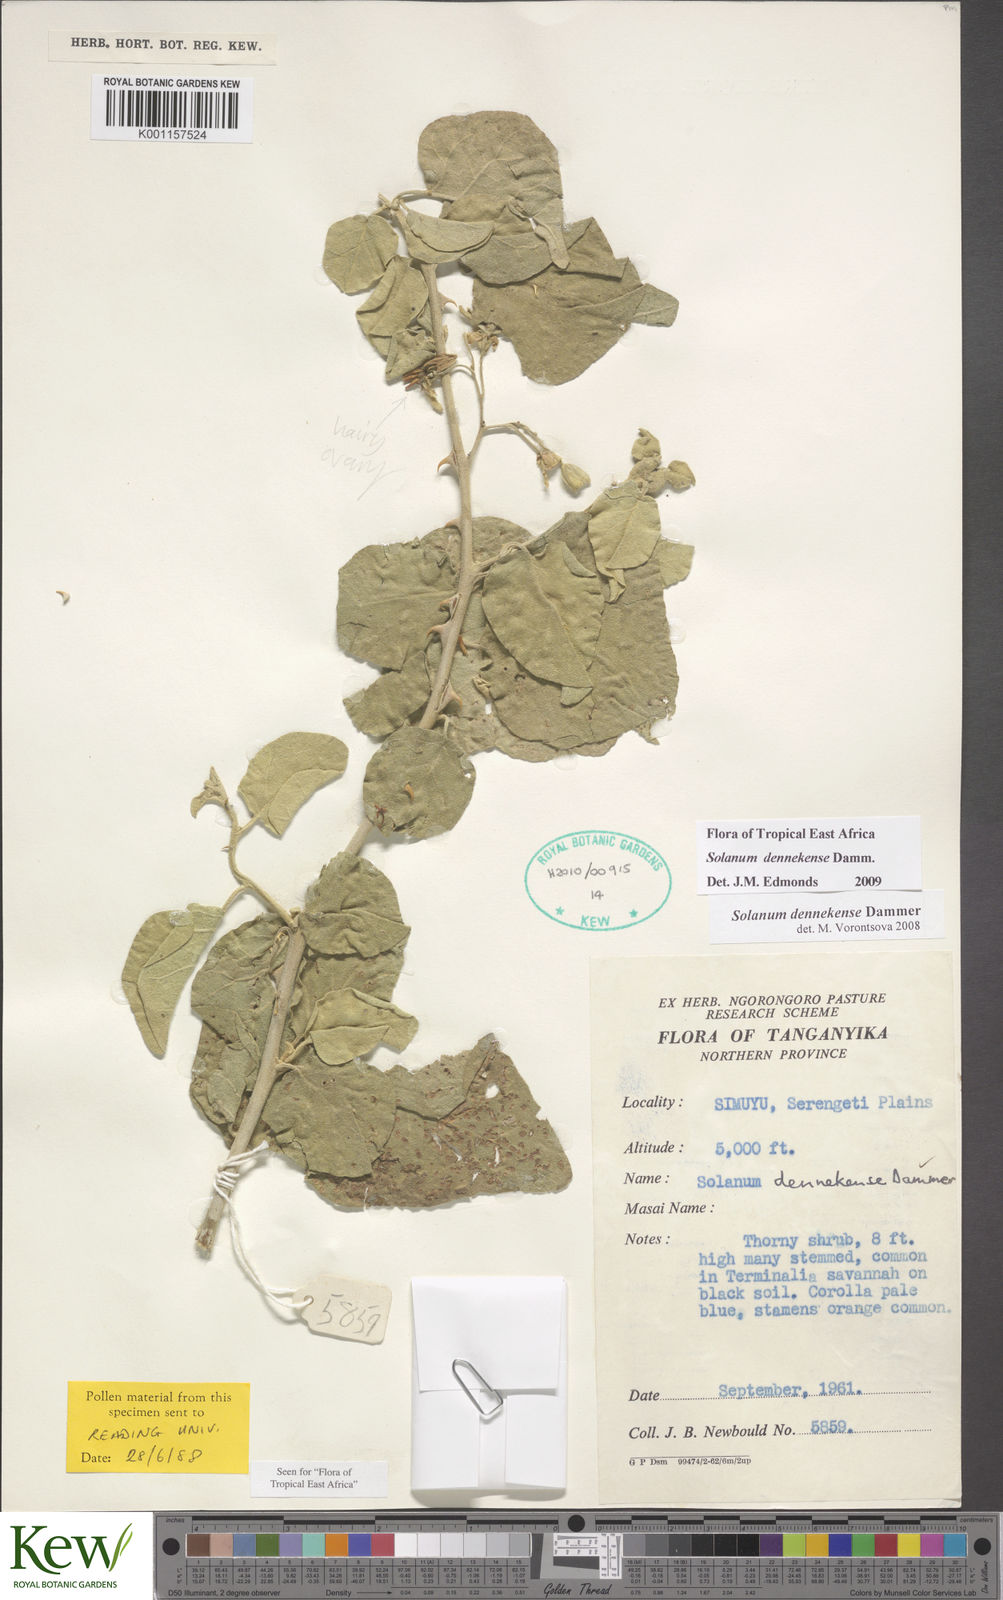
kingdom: Plantae
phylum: Tracheophyta
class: Magnoliopsida
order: Solanales
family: Solanaceae
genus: Solanum
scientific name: Solanum dennekense
